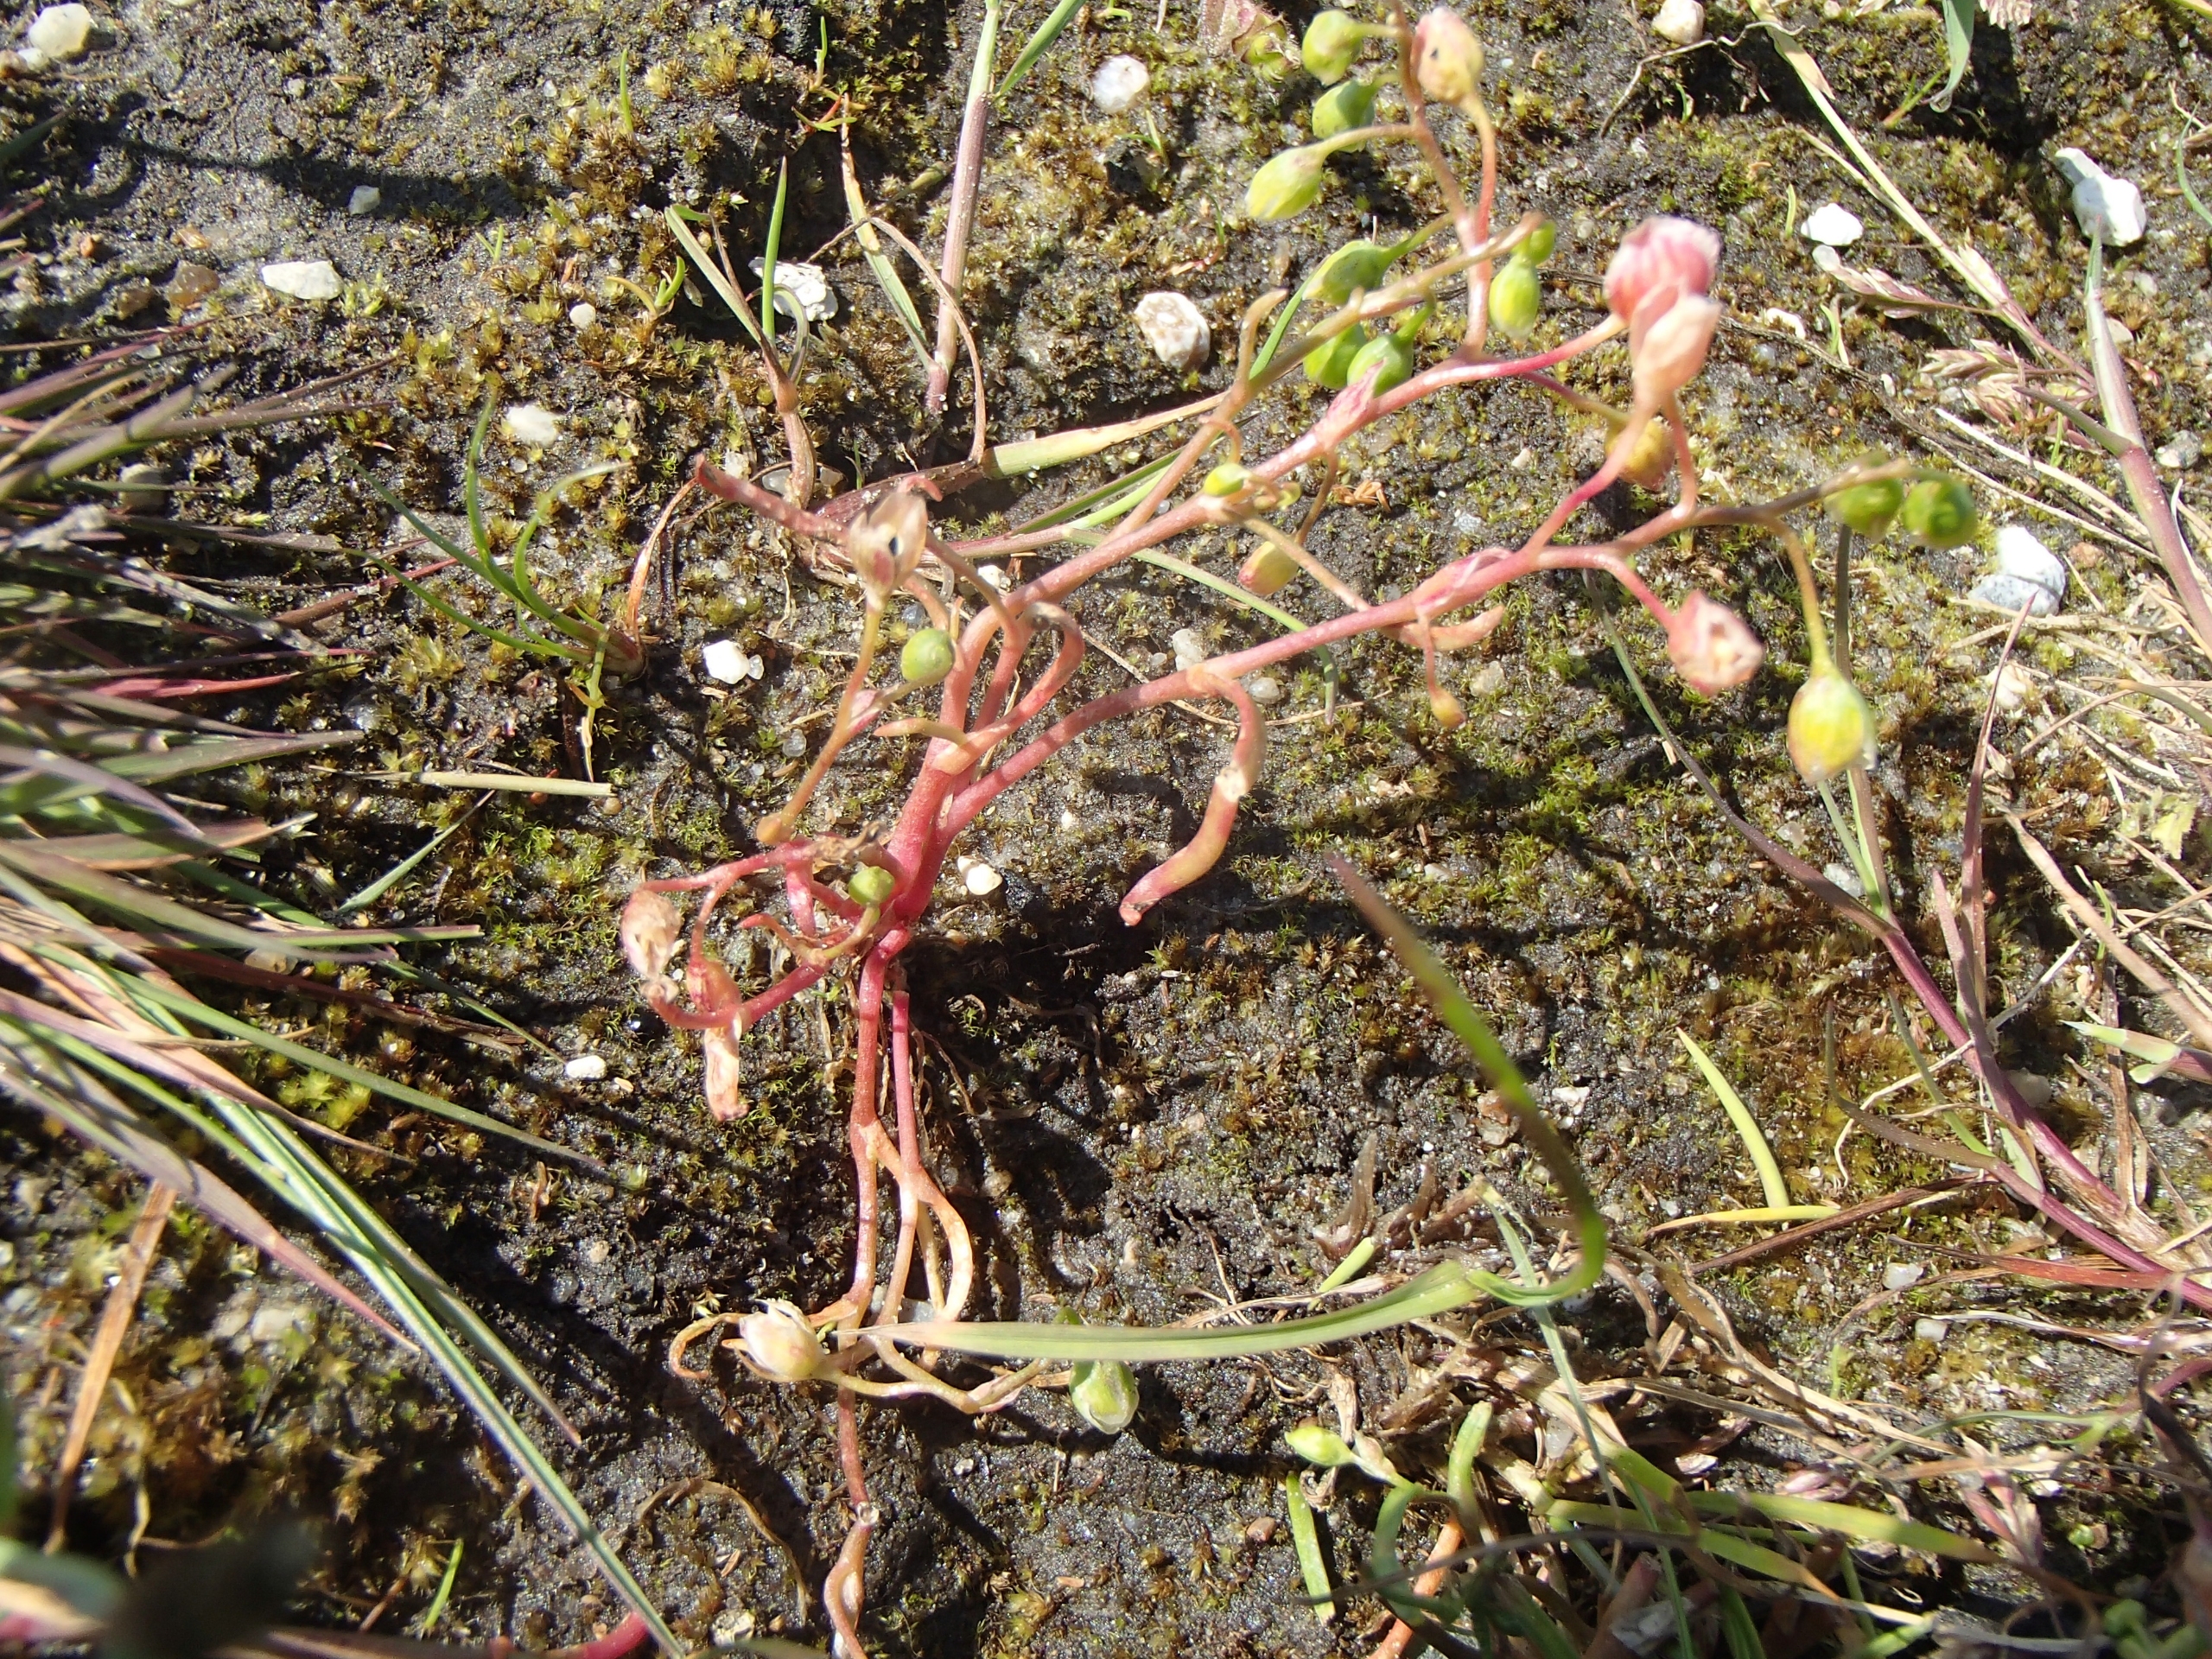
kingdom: Plantae
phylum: Tracheophyta
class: Magnoliopsida
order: Caryophyllales
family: Montiaceae
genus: Montia
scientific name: Montia linearis
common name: Smalbladet vårportulak
